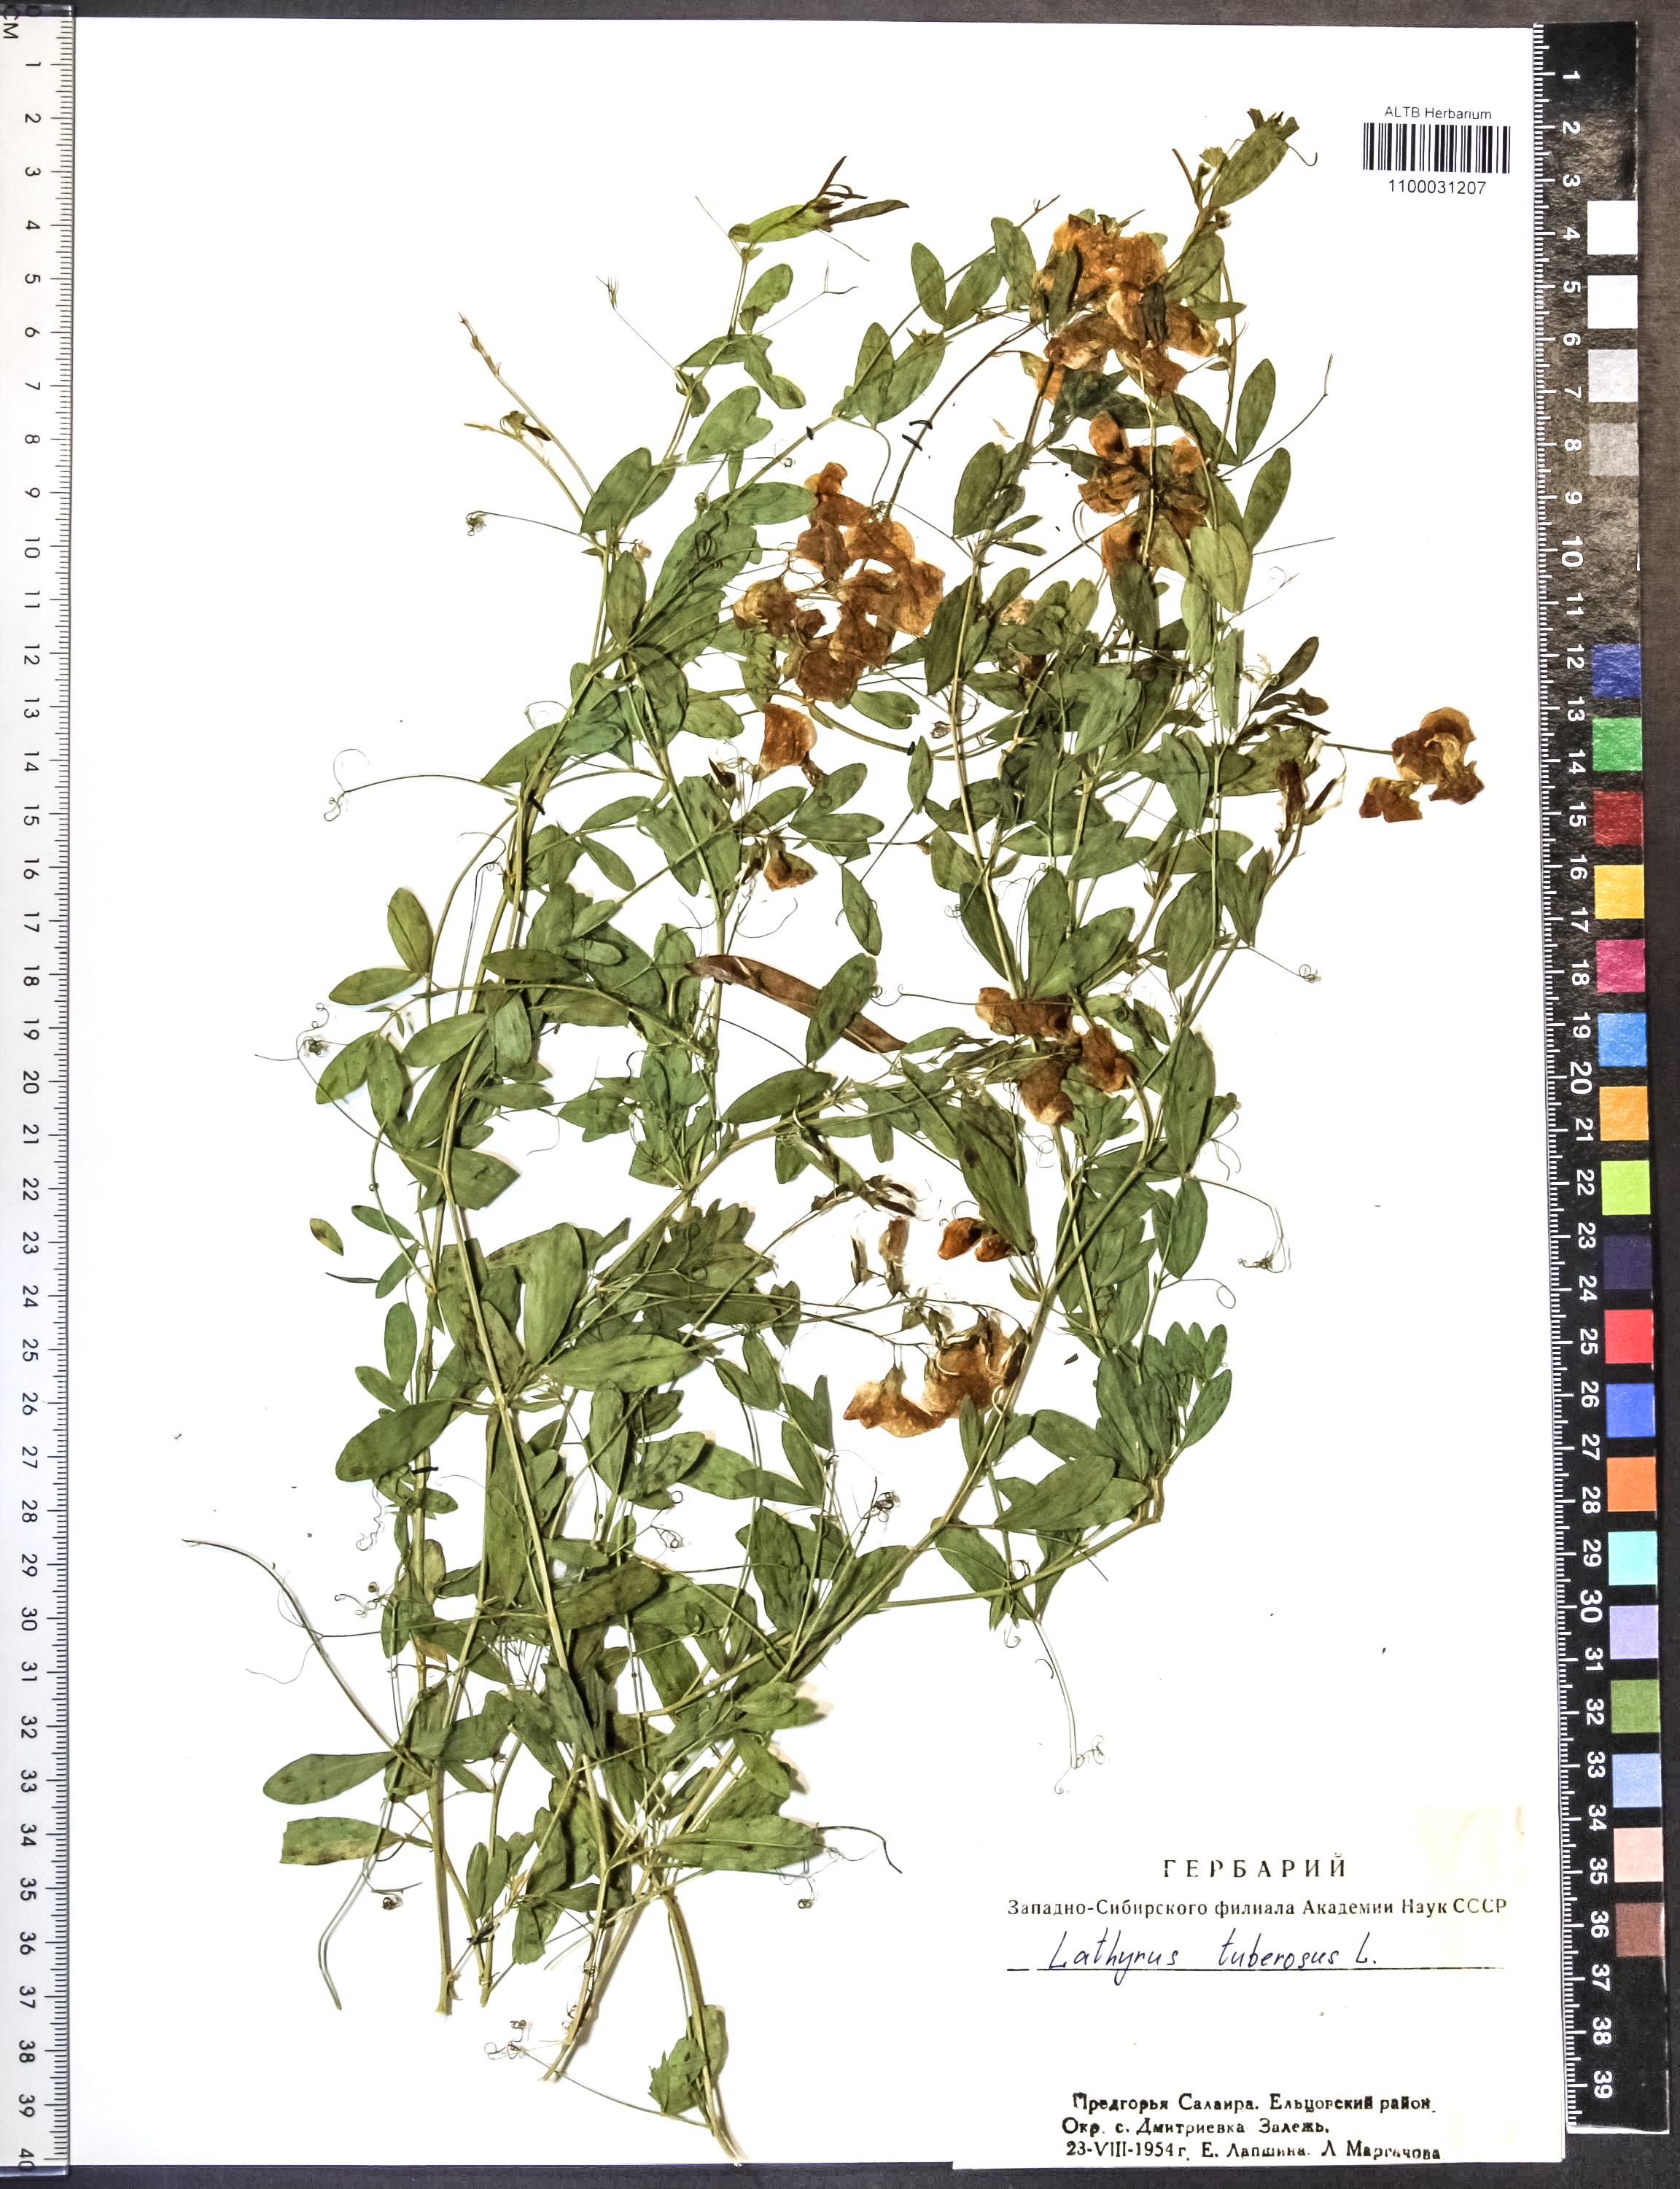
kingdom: Plantae
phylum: Tracheophyta
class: Magnoliopsida
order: Fabales
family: Fabaceae
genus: Lathyrus
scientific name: Lathyrus tuberosus
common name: Tuberous pea
